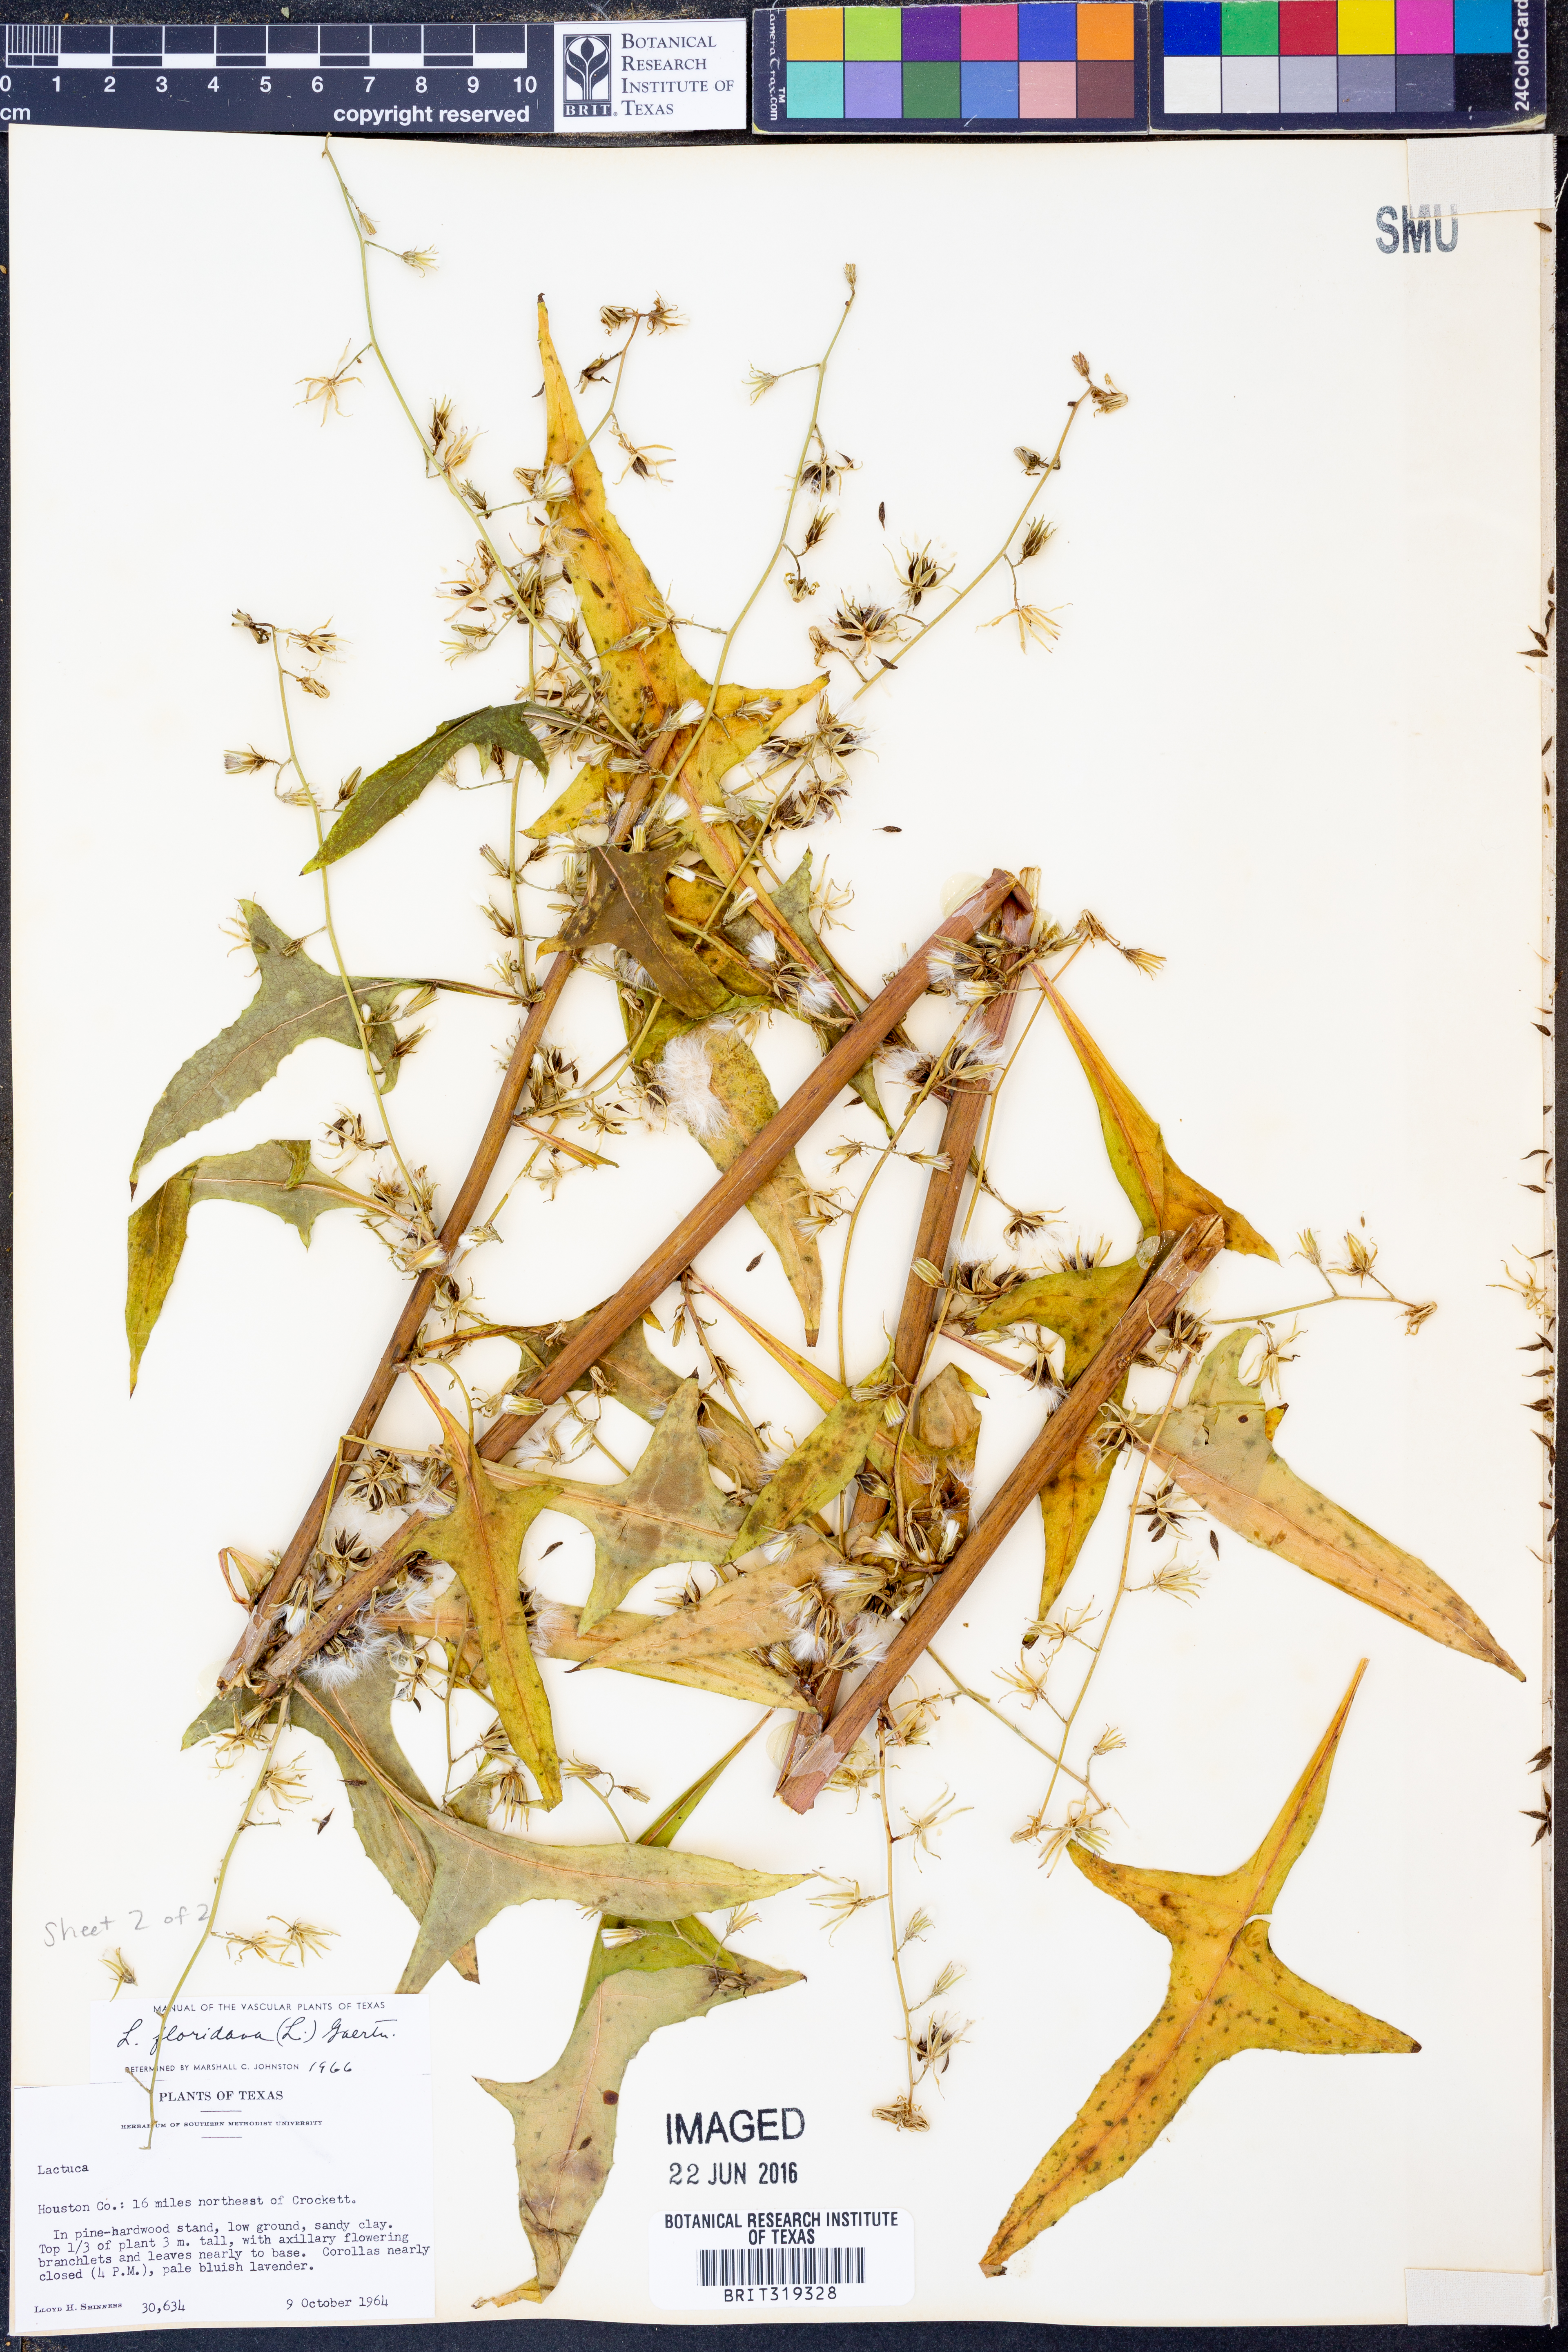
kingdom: Plantae
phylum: Tracheophyta
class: Magnoliopsida
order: Asterales
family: Asteraceae
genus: Lactuca
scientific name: Lactuca floridana
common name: Woodland lettuce
